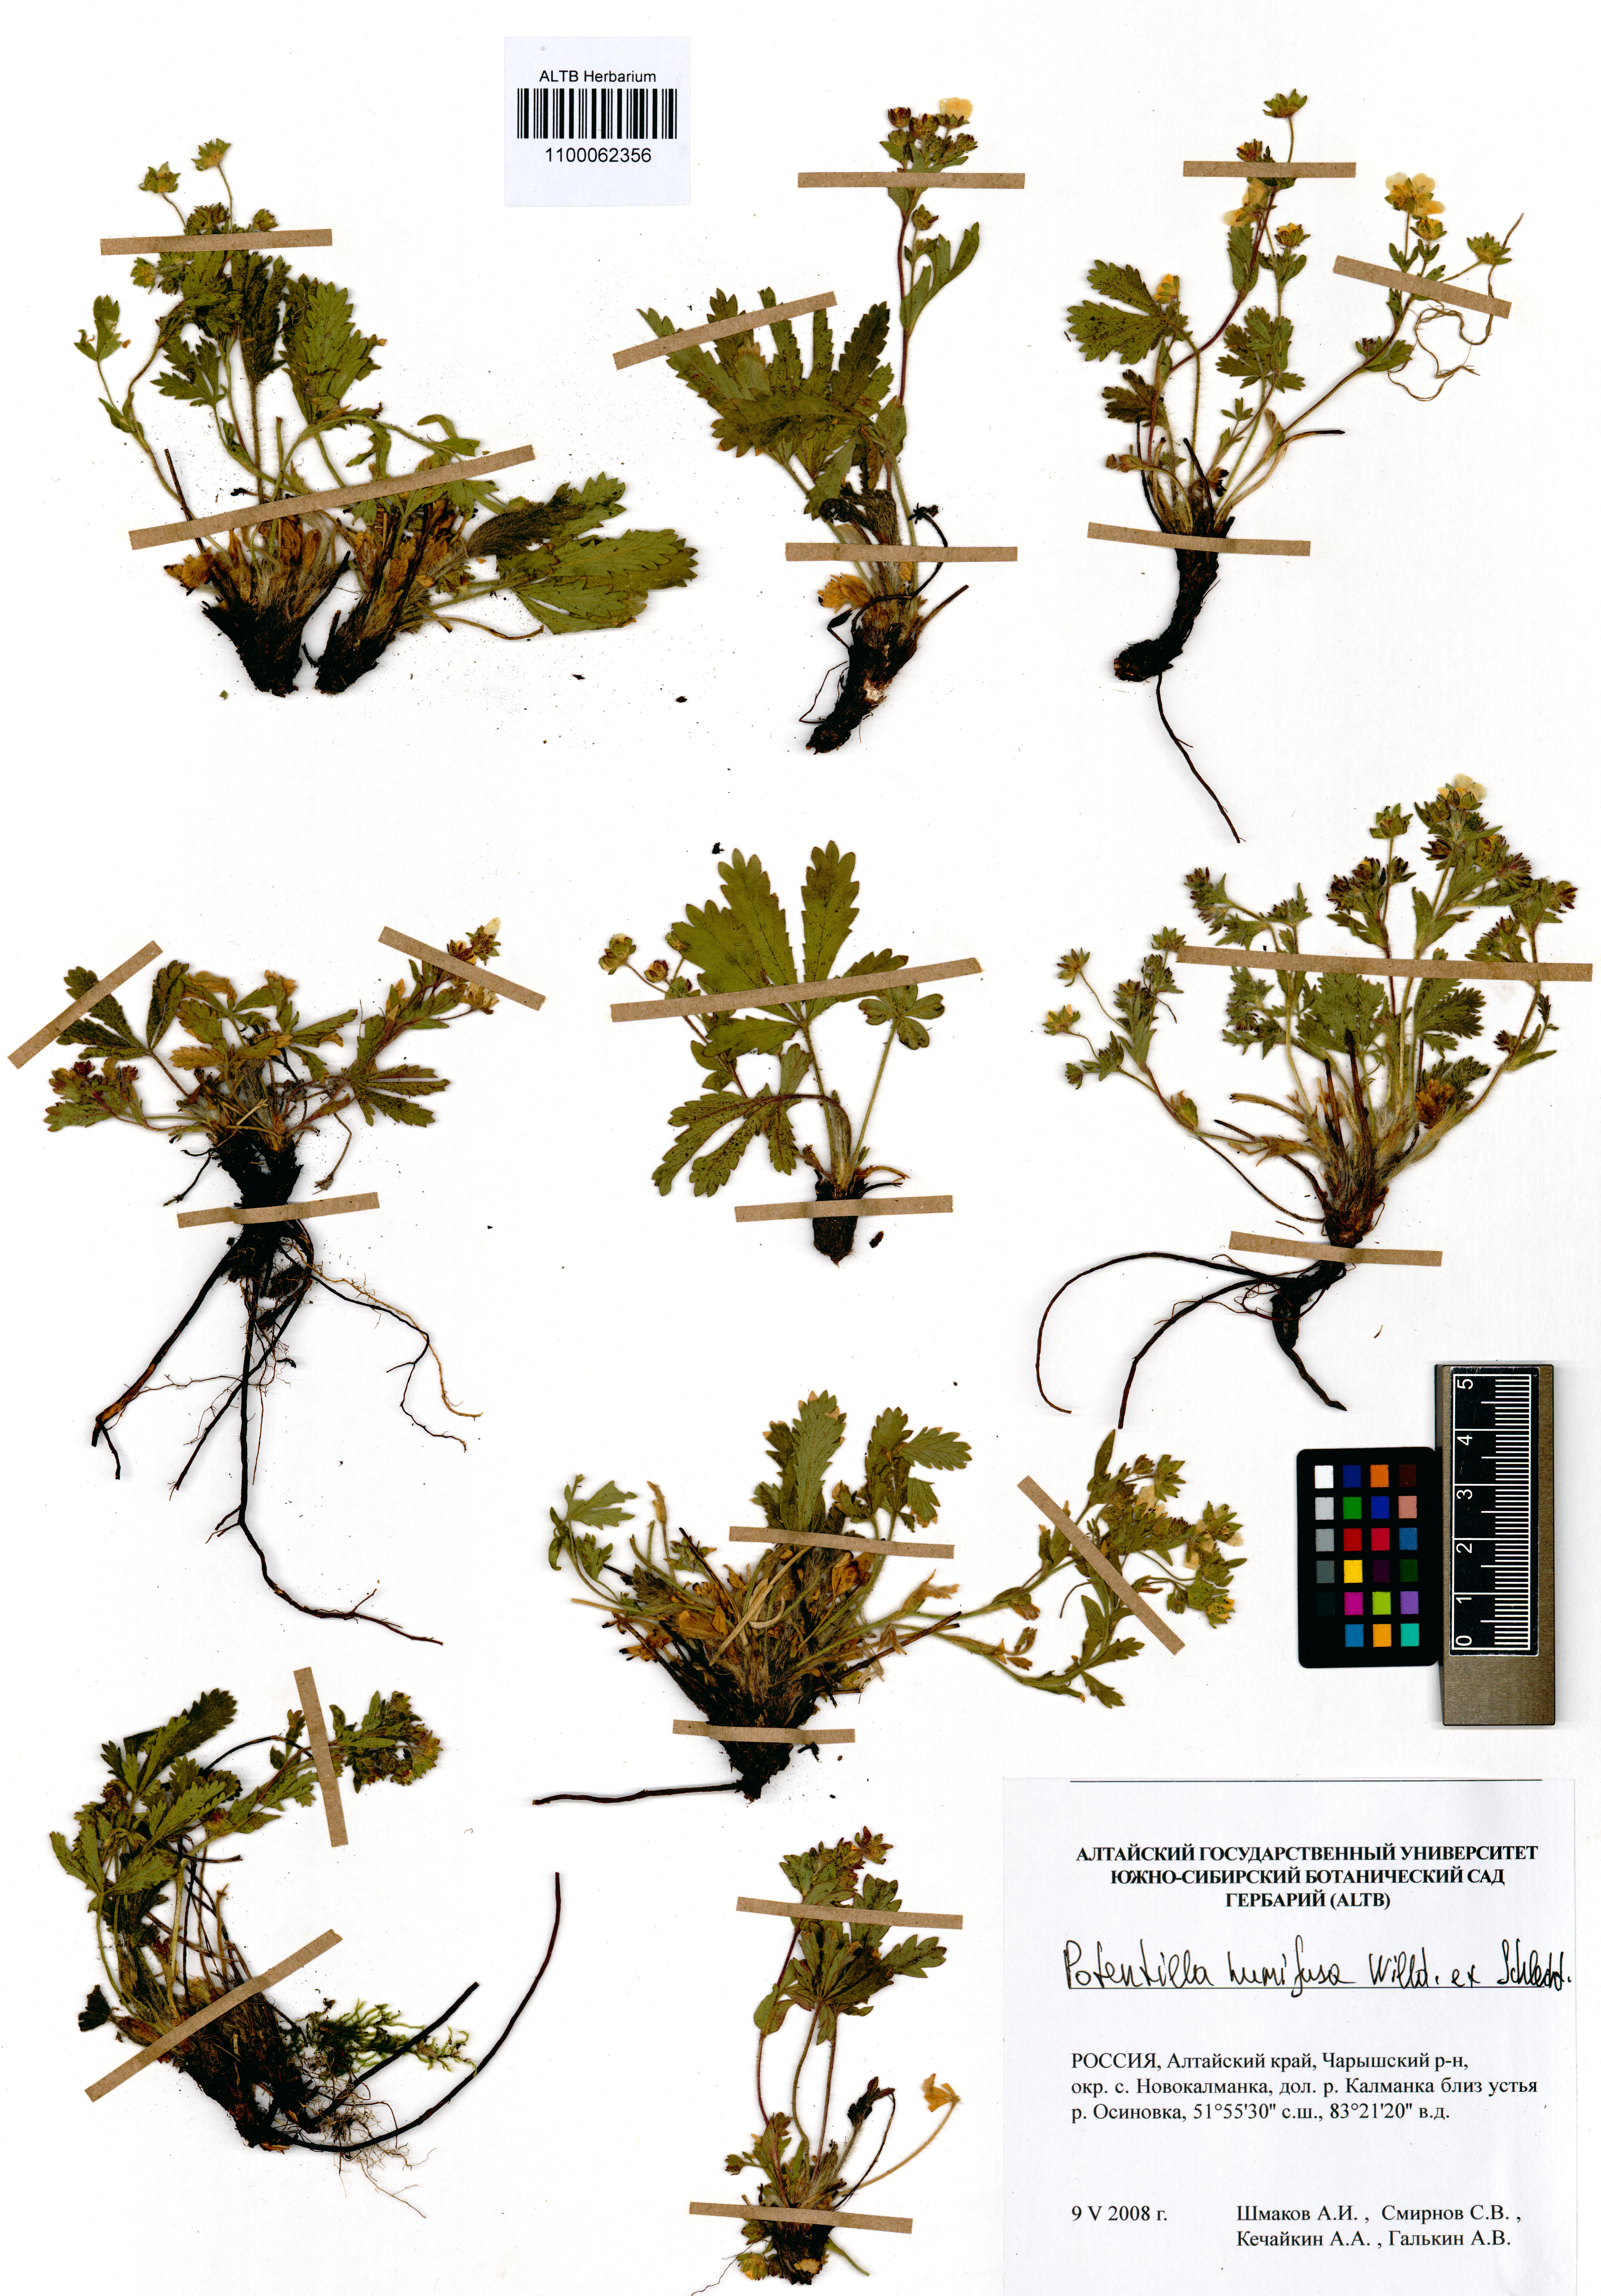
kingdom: Plantae
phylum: Tracheophyta
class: Magnoliopsida
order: Rosales
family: Rosaceae
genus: Potentilla
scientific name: Potentilla humifusa
